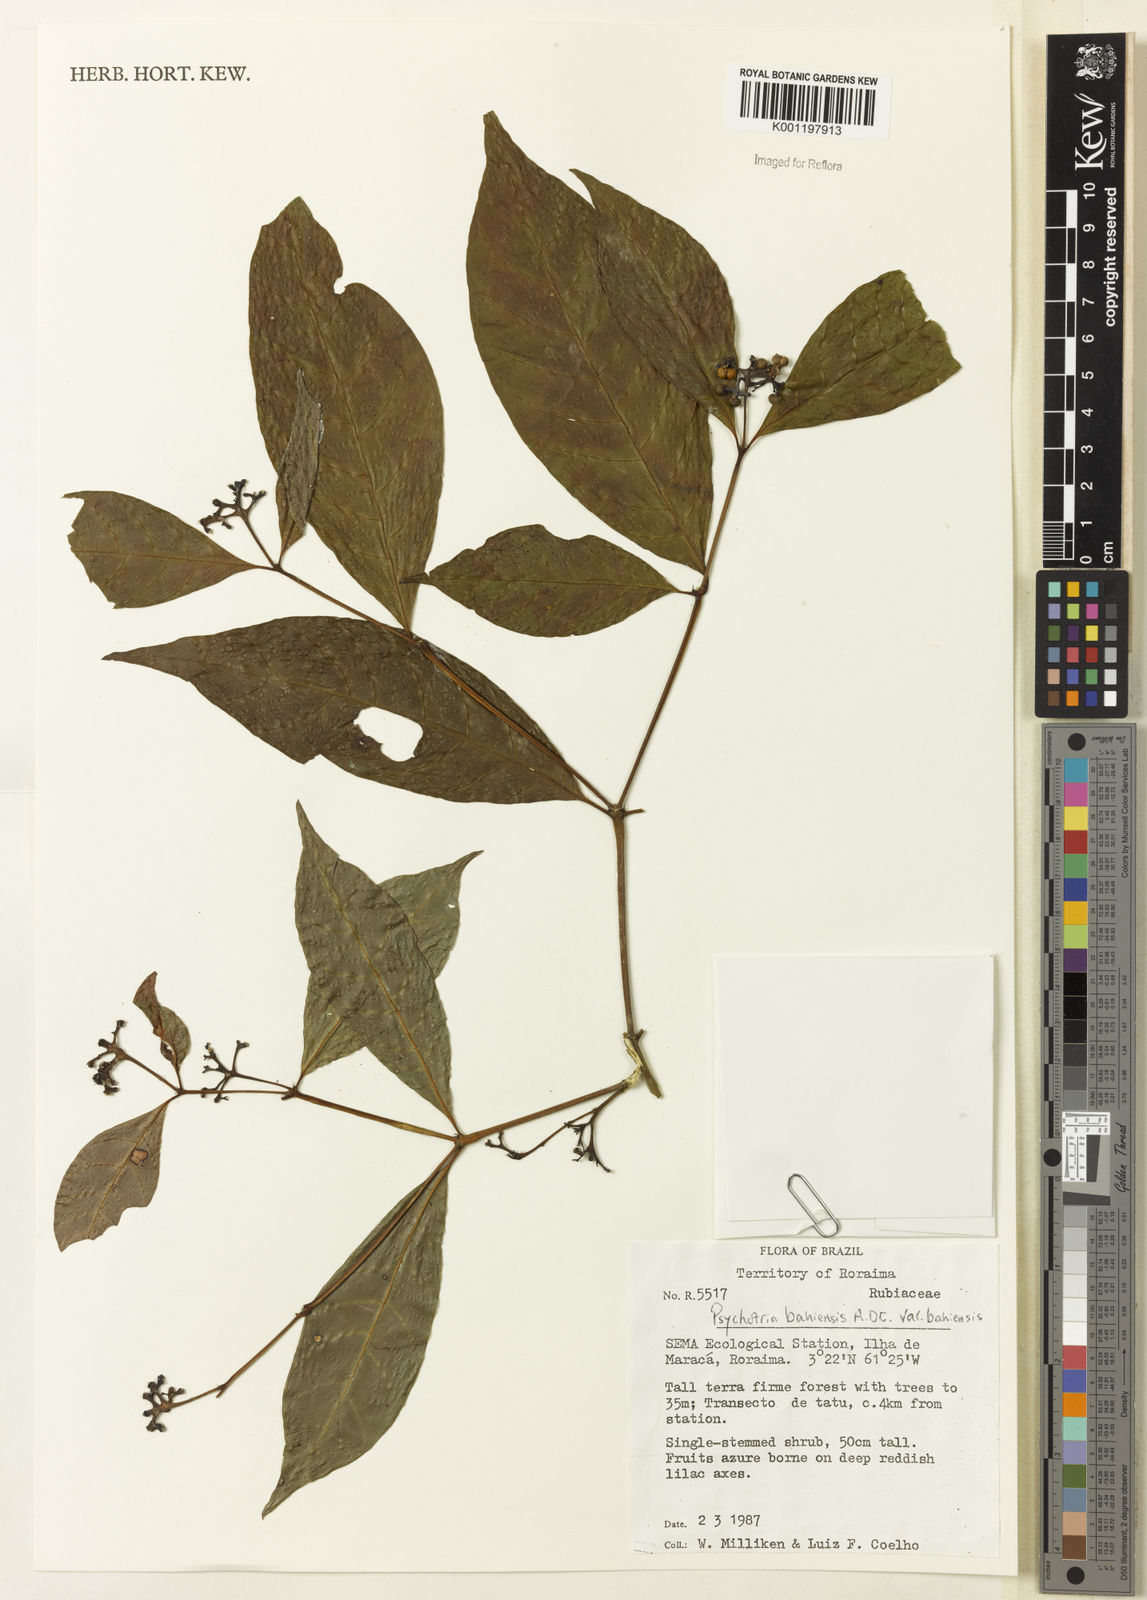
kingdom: Plantae
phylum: Tracheophyta
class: Magnoliopsida
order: Gentianales
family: Rubiaceae
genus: Psychotria
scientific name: Psychotria bahiensis
